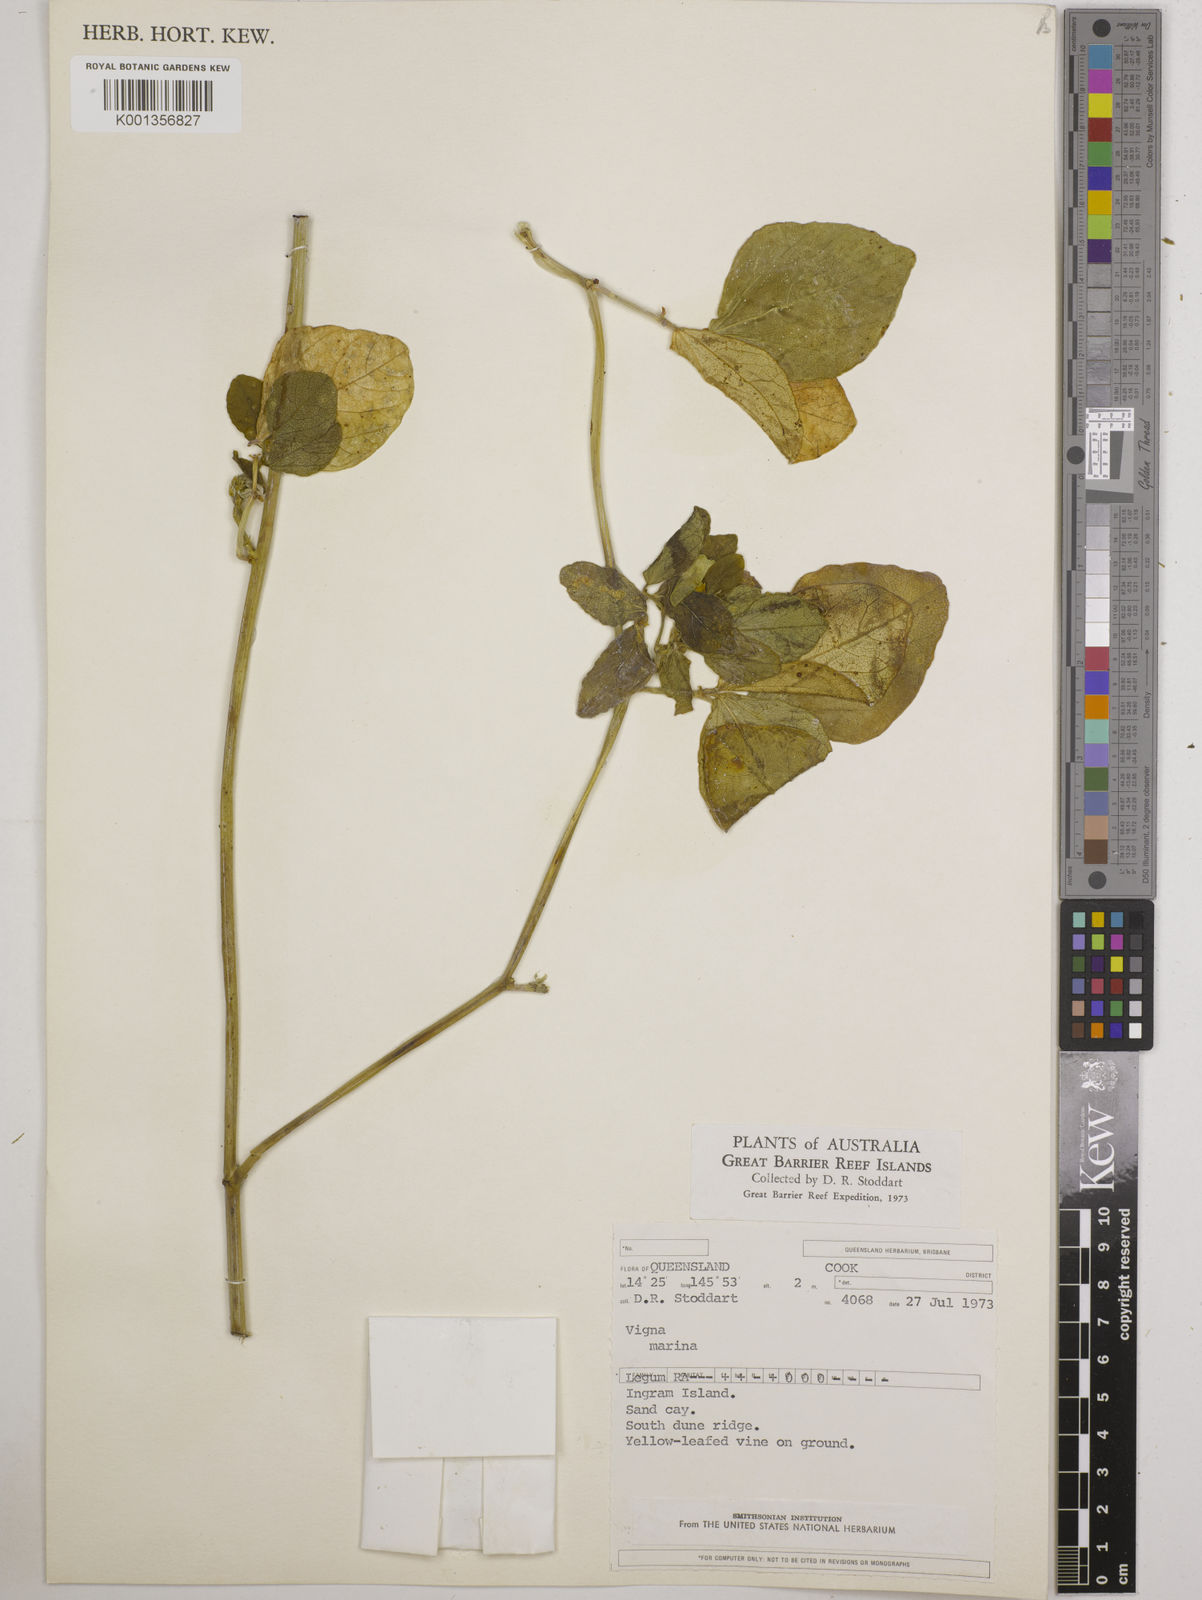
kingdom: Plantae
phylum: Tracheophyta
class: Magnoliopsida
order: Fabales
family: Fabaceae
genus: Vigna
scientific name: Vigna marina
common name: Dune-bean
